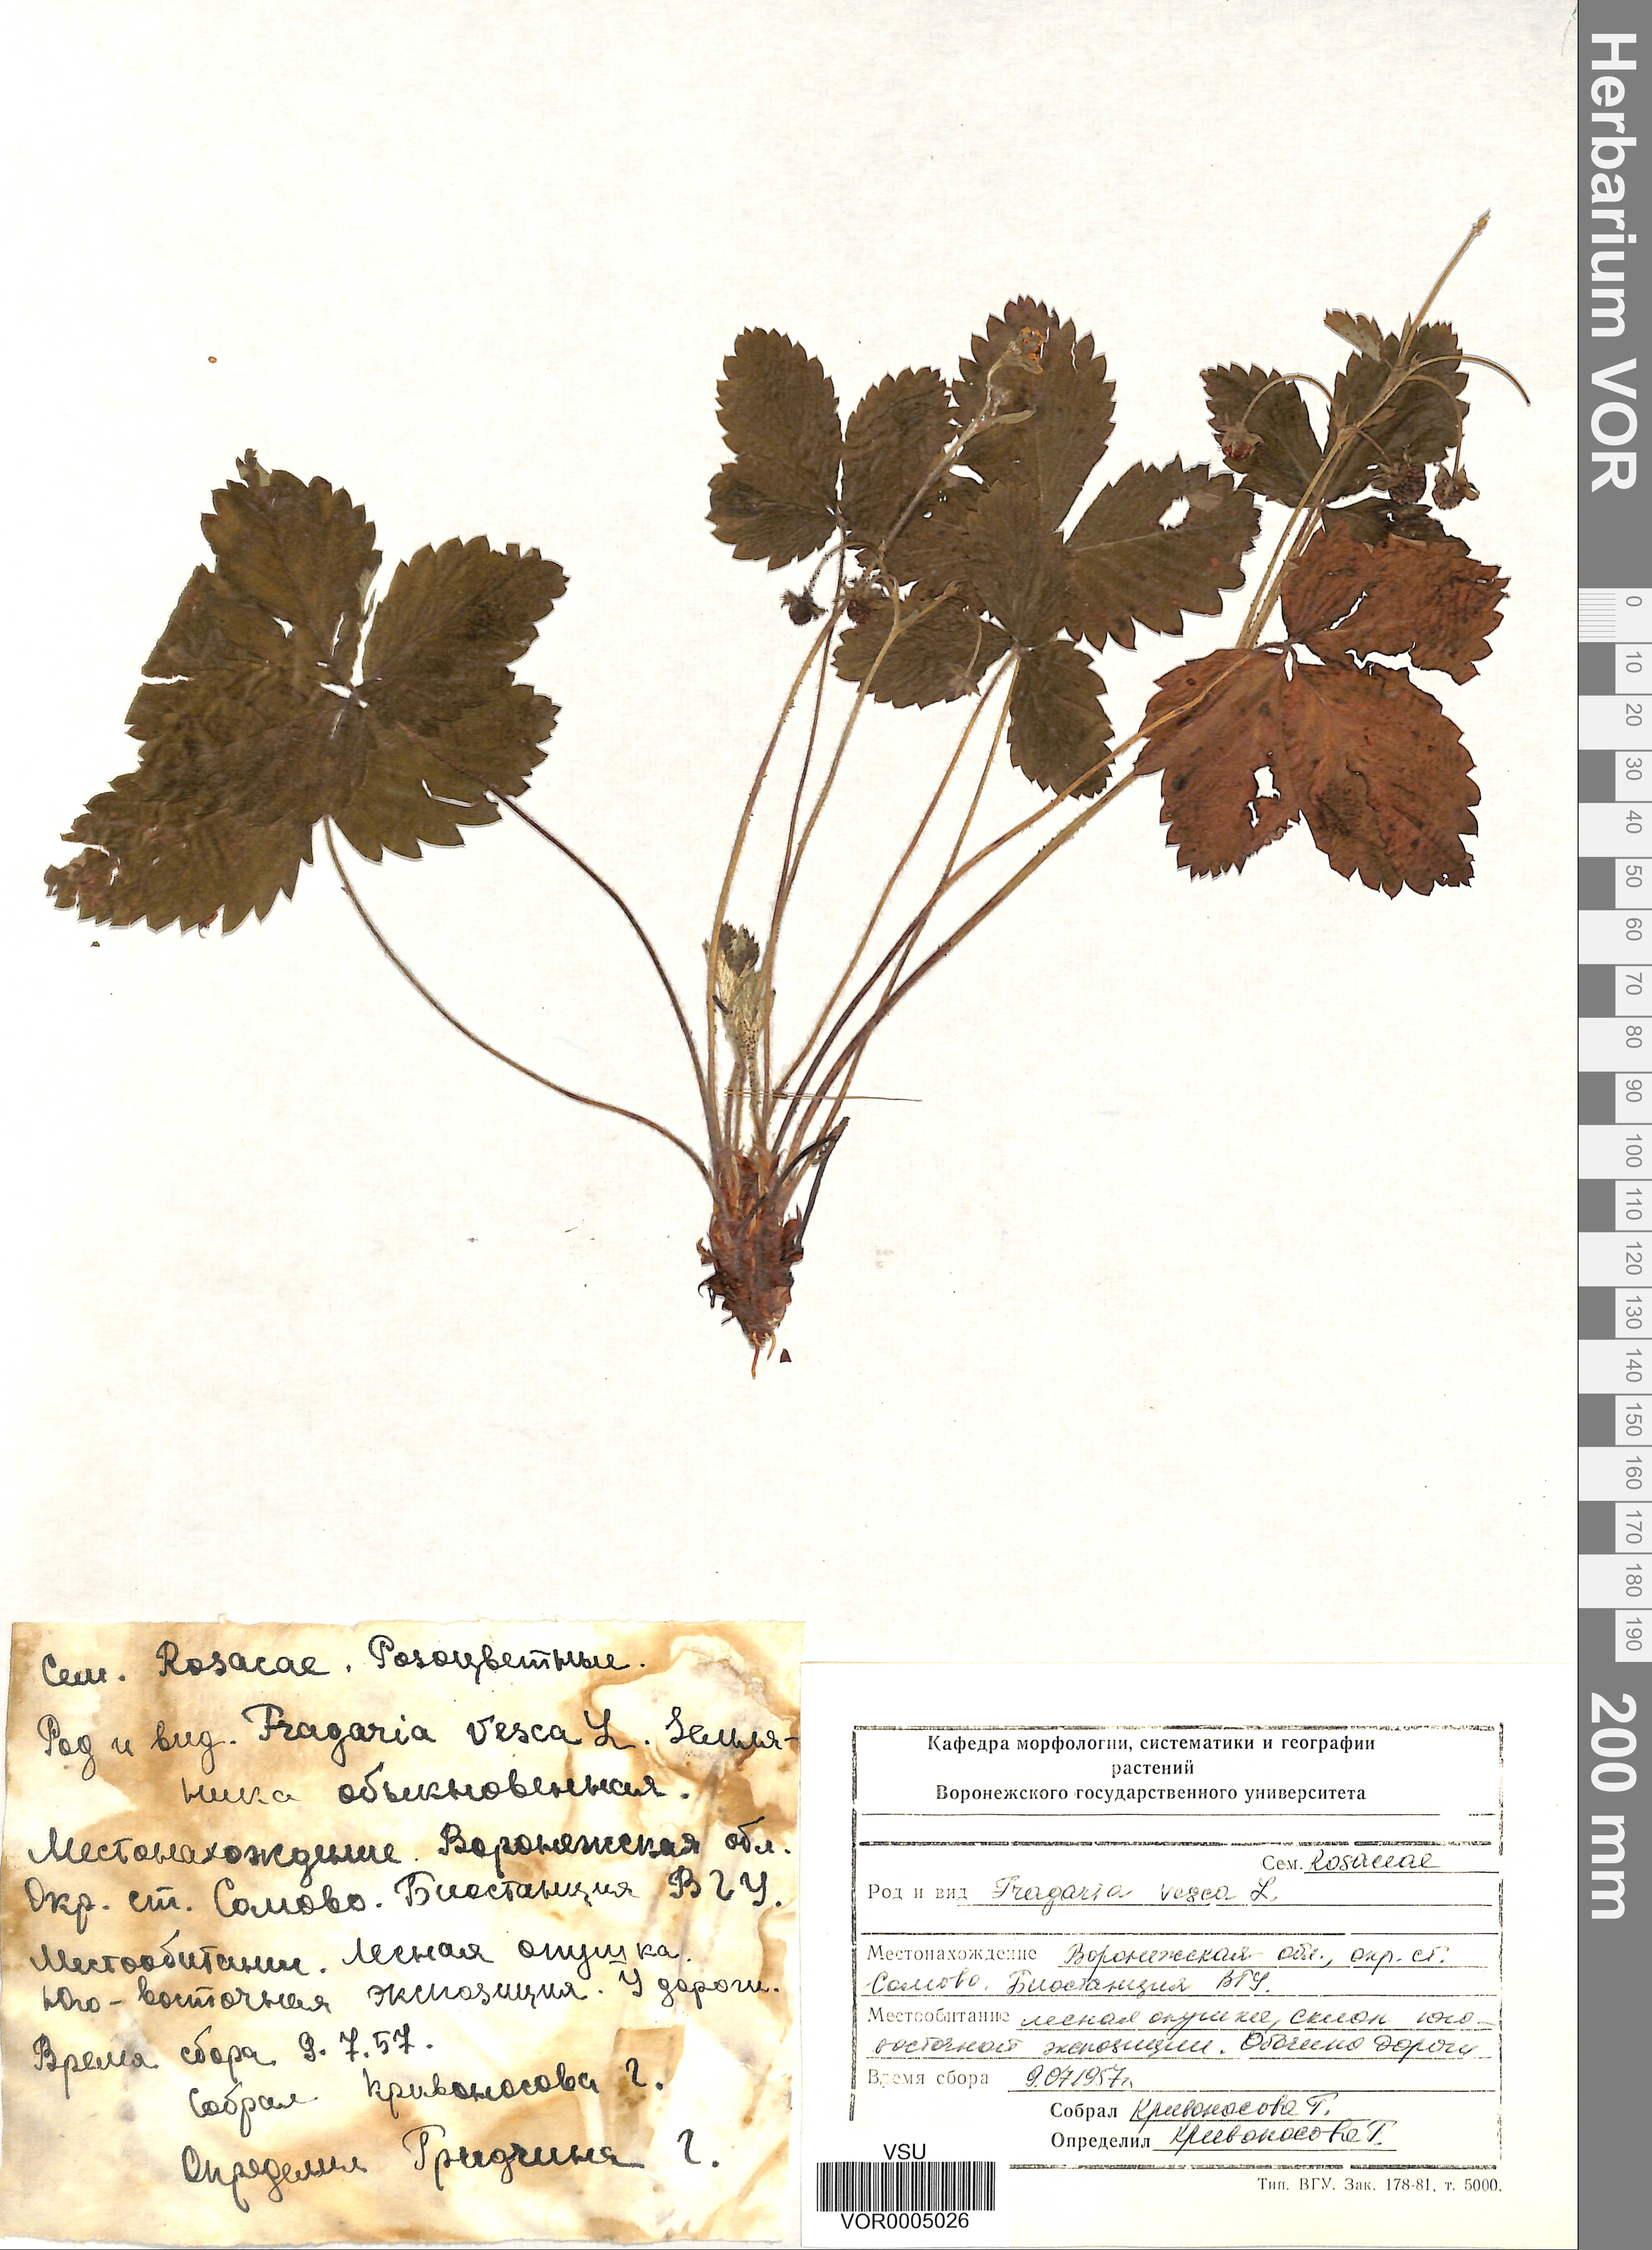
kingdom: Plantae
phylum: Tracheophyta
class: Magnoliopsida
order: Rosales
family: Rosaceae
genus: Fragaria
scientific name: Fragaria vesca
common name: Wild strawberry
